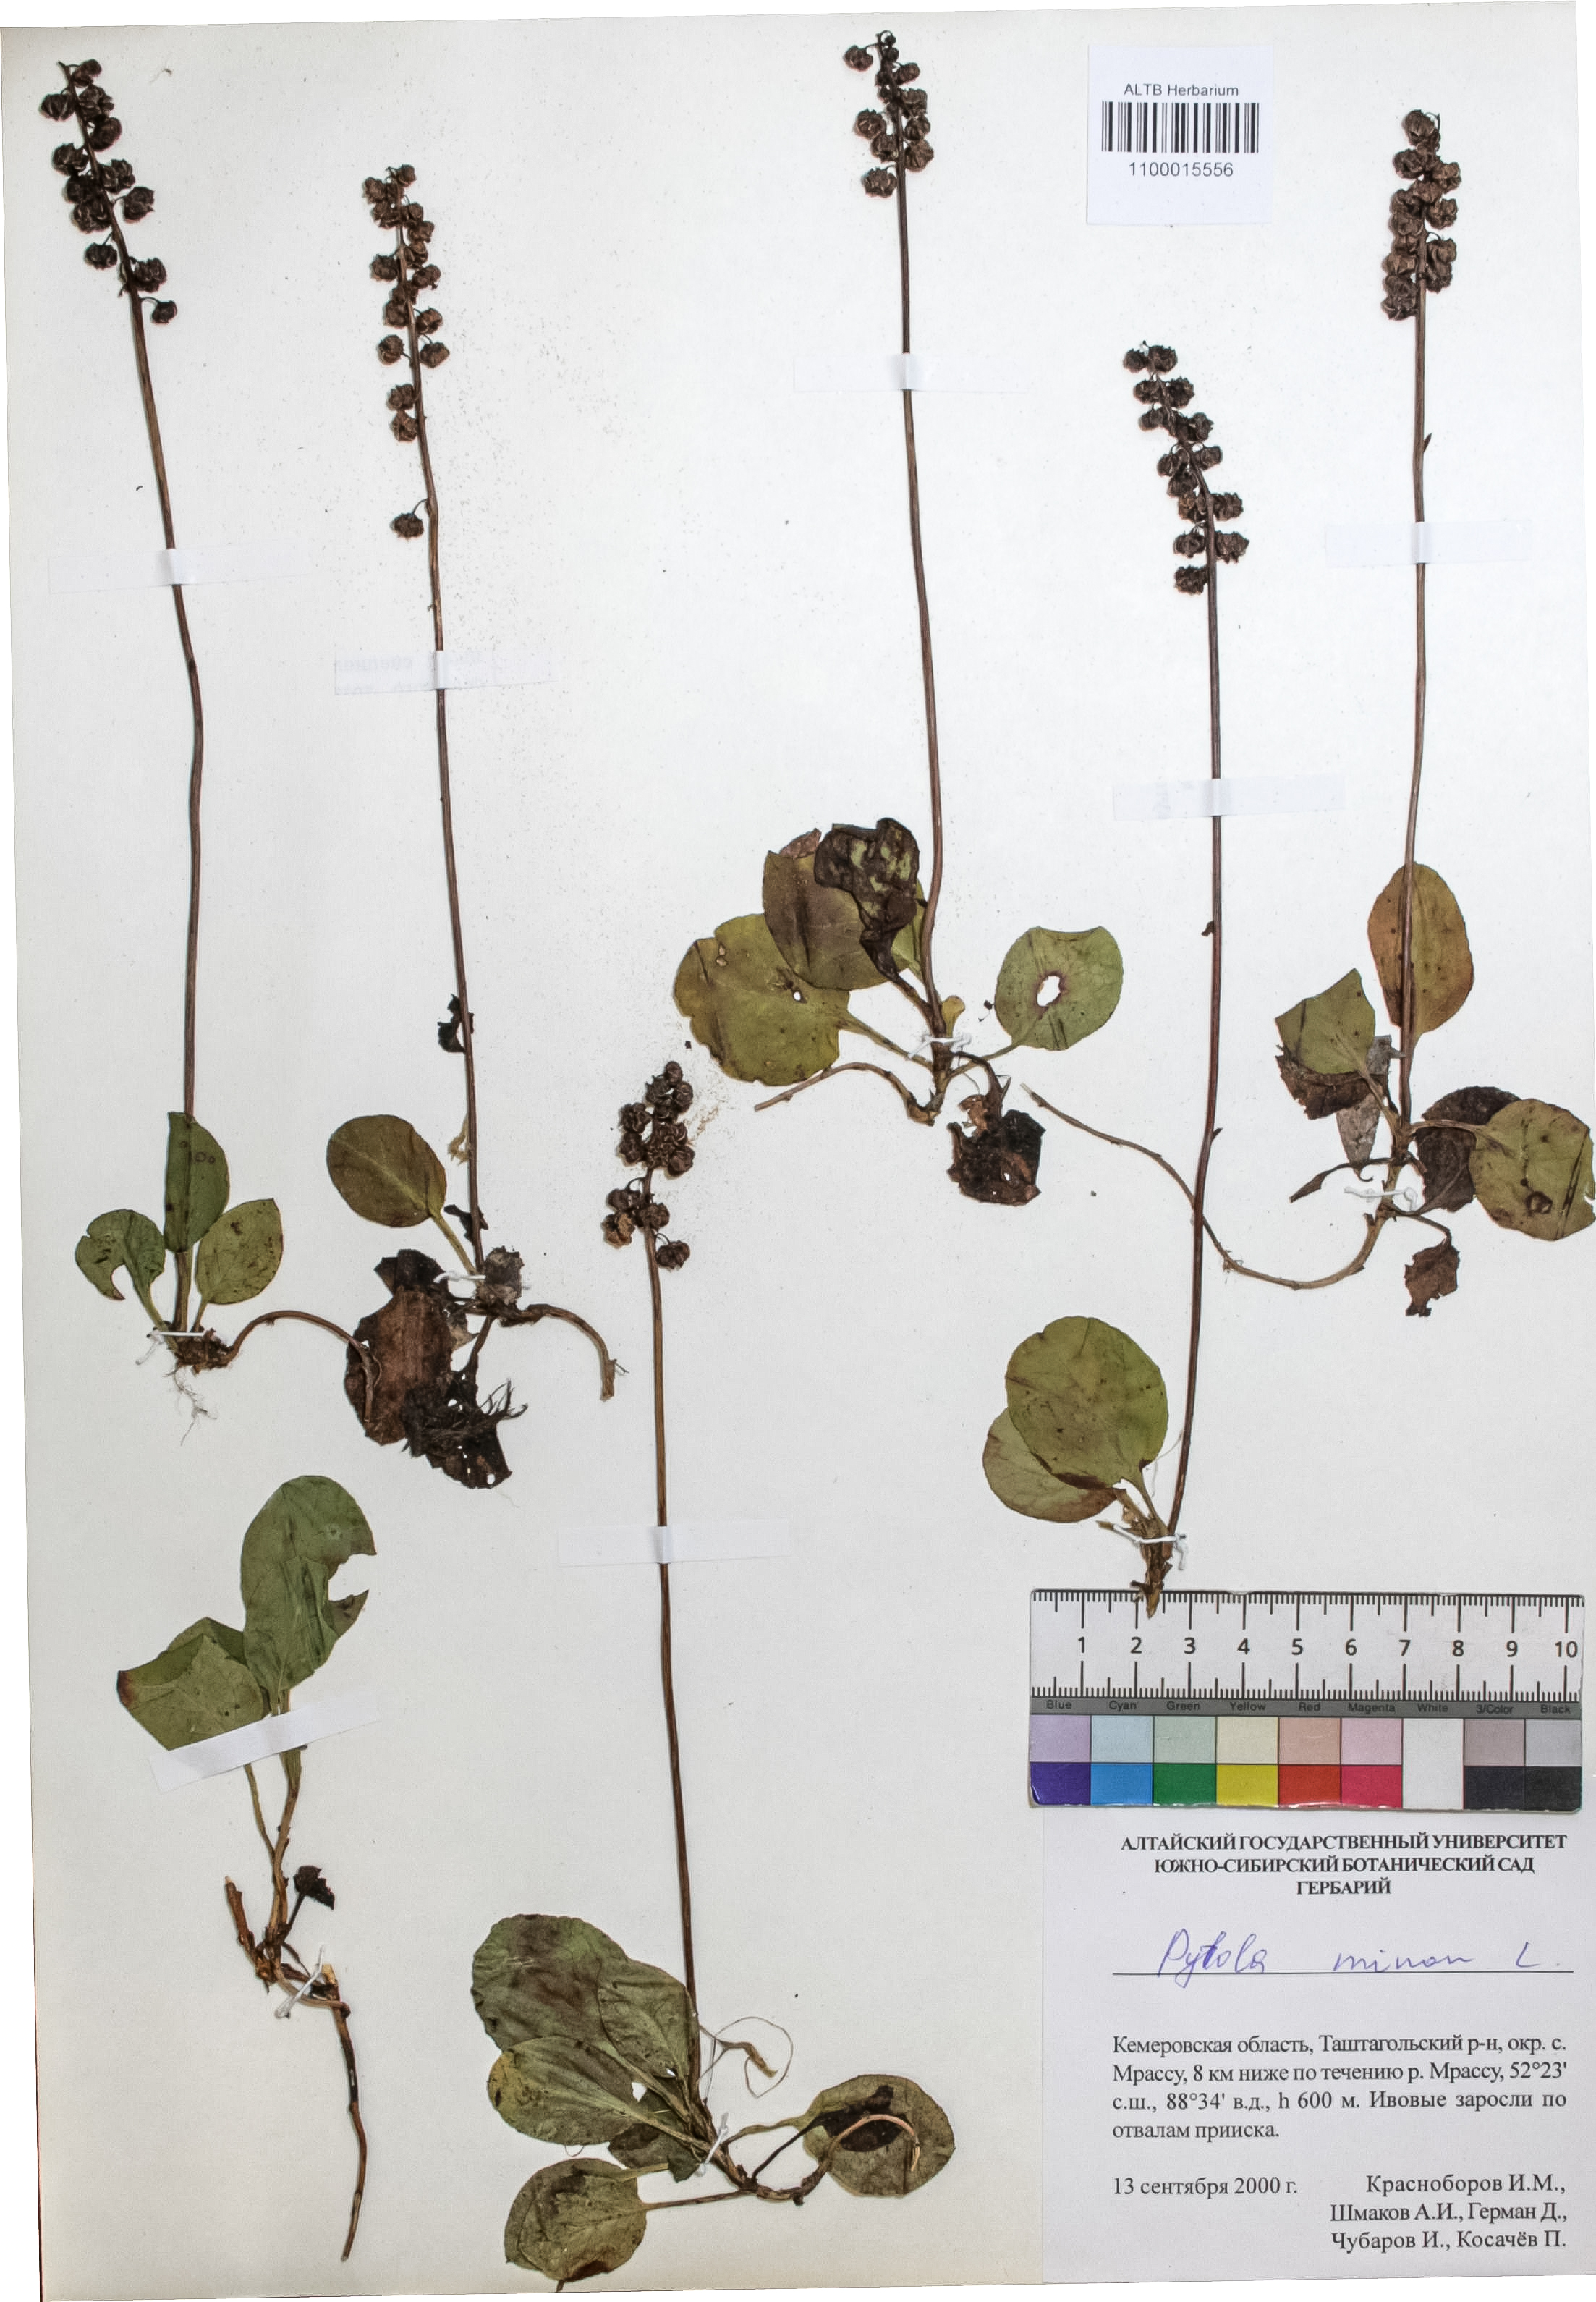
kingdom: Plantae
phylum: Tracheophyta
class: Magnoliopsida
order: Ericales
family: Ericaceae
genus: Pyrola
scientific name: Pyrola minor
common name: Common wintergreen
